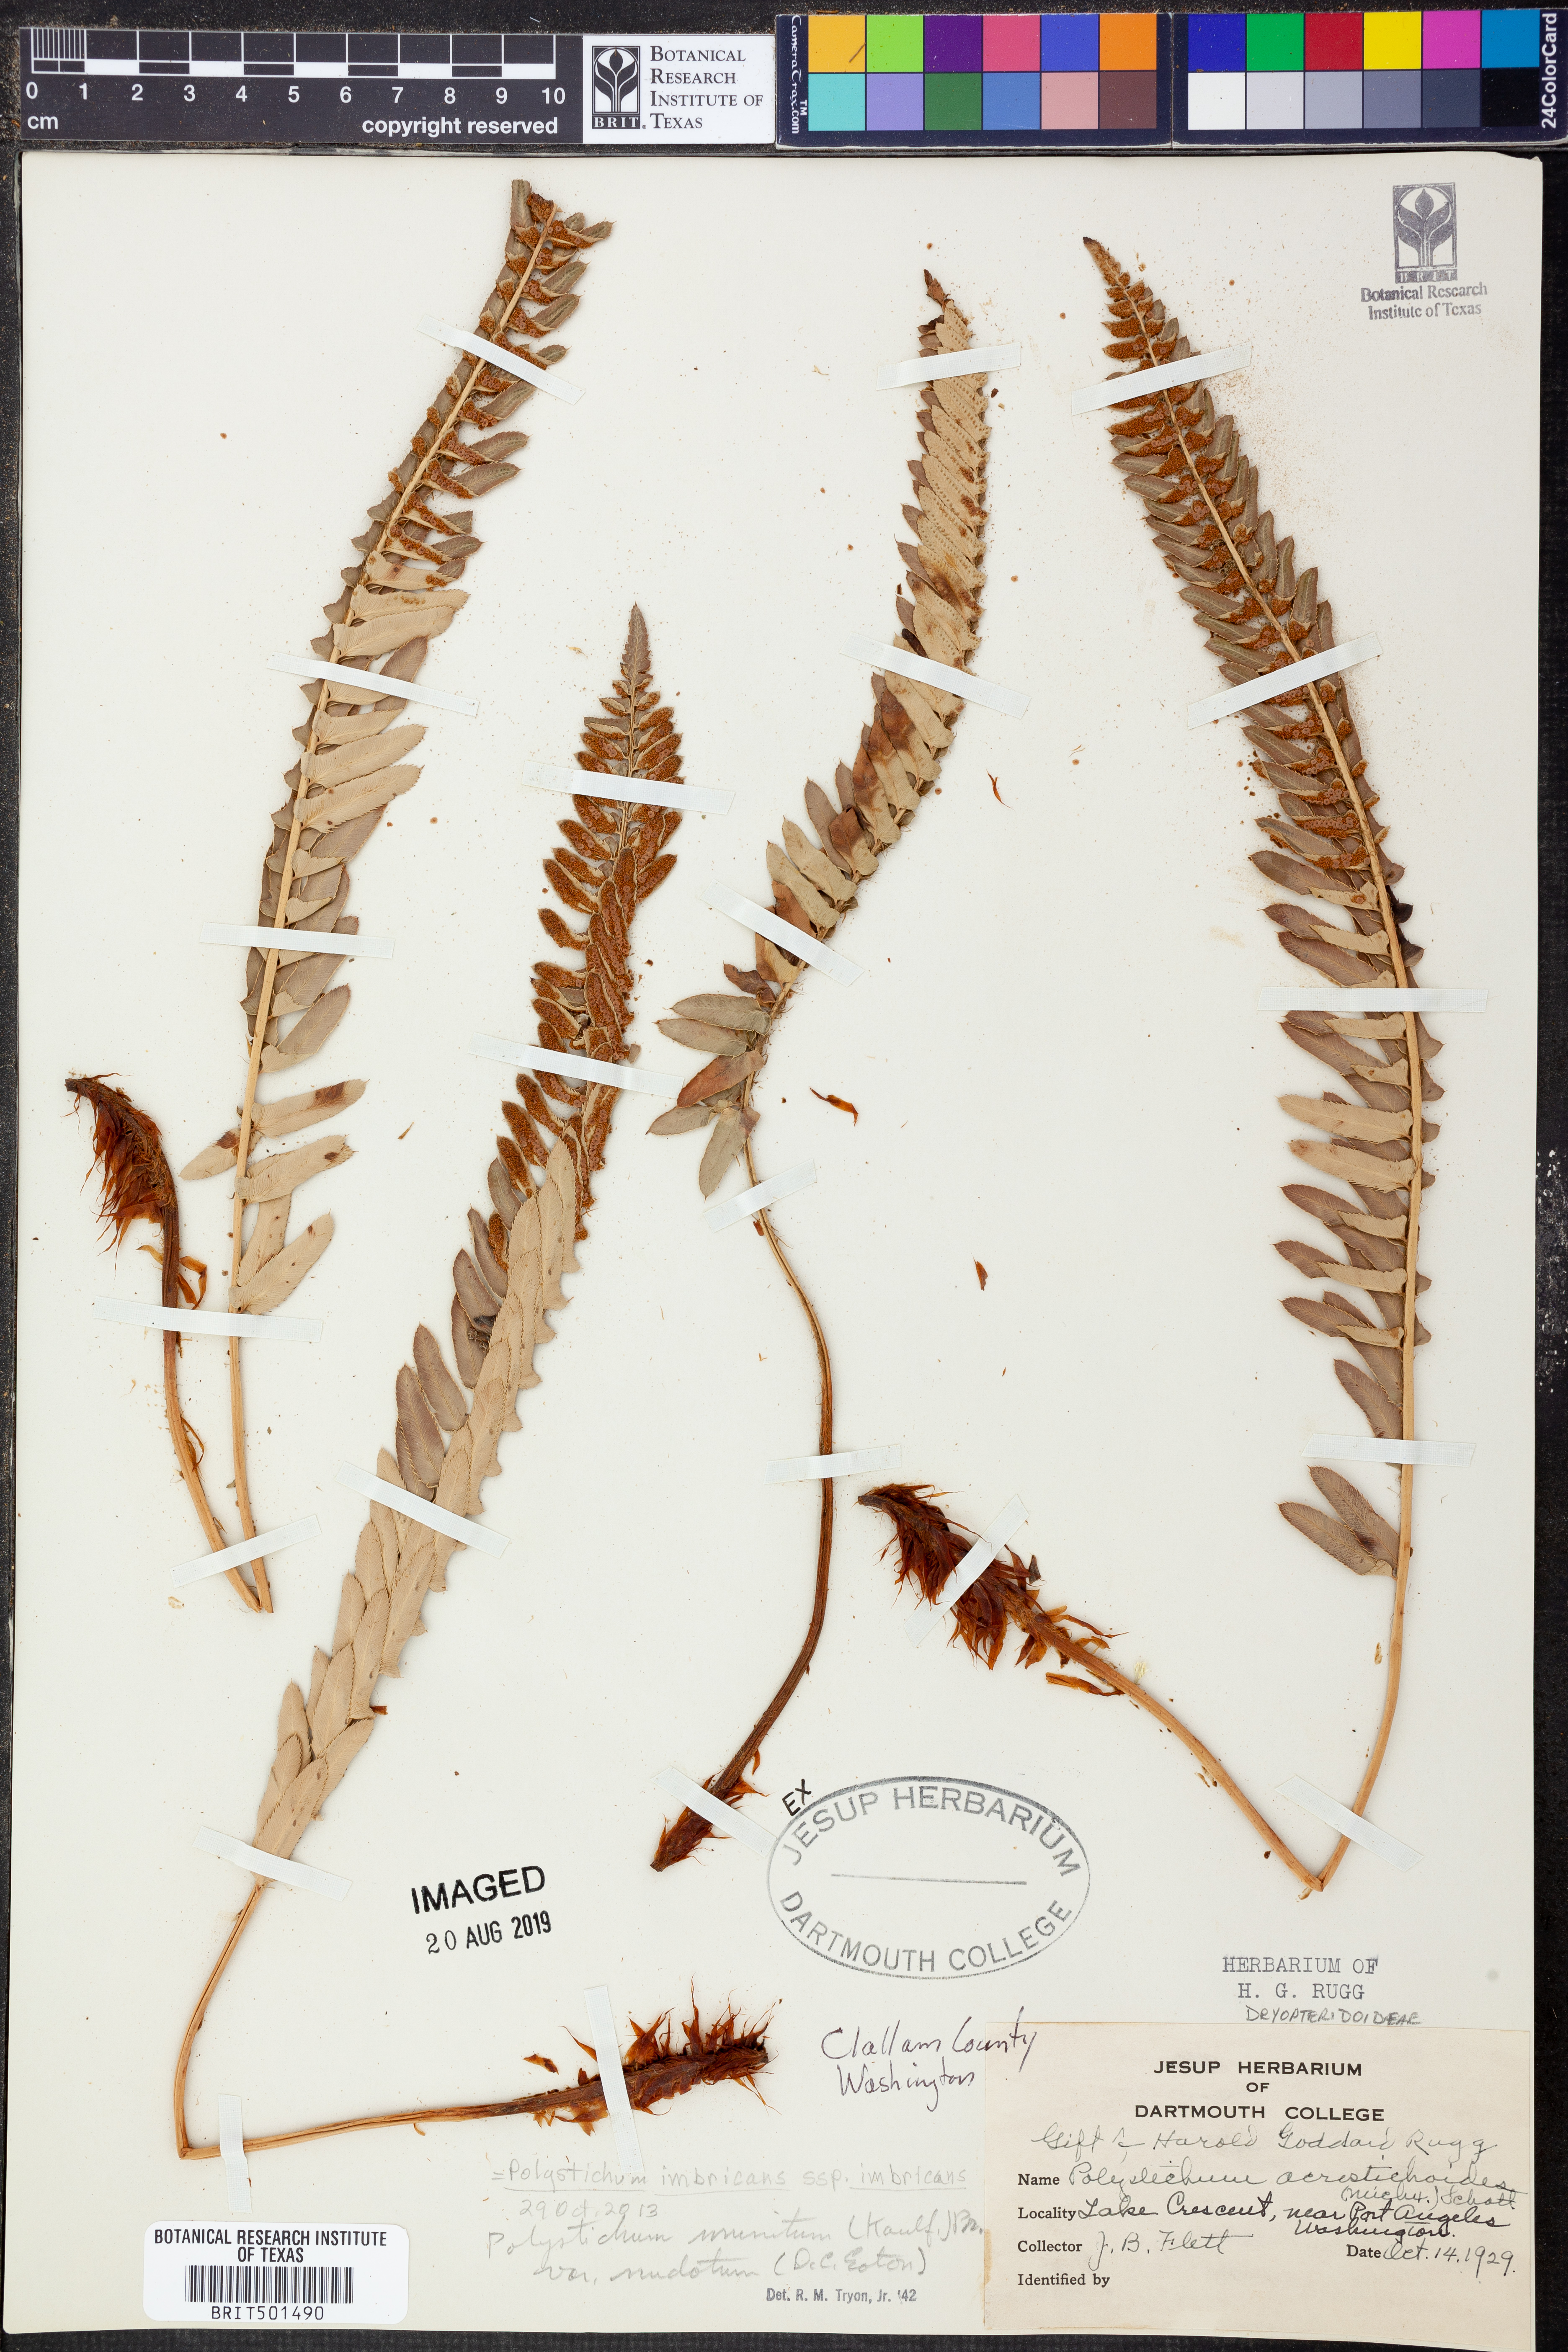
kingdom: Plantae
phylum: Tracheophyta
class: Polypodiopsida
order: Polypodiales
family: Dryopteridaceae
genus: Polystichum
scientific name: Polystichum imbricans
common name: Dwarf western sword fern
